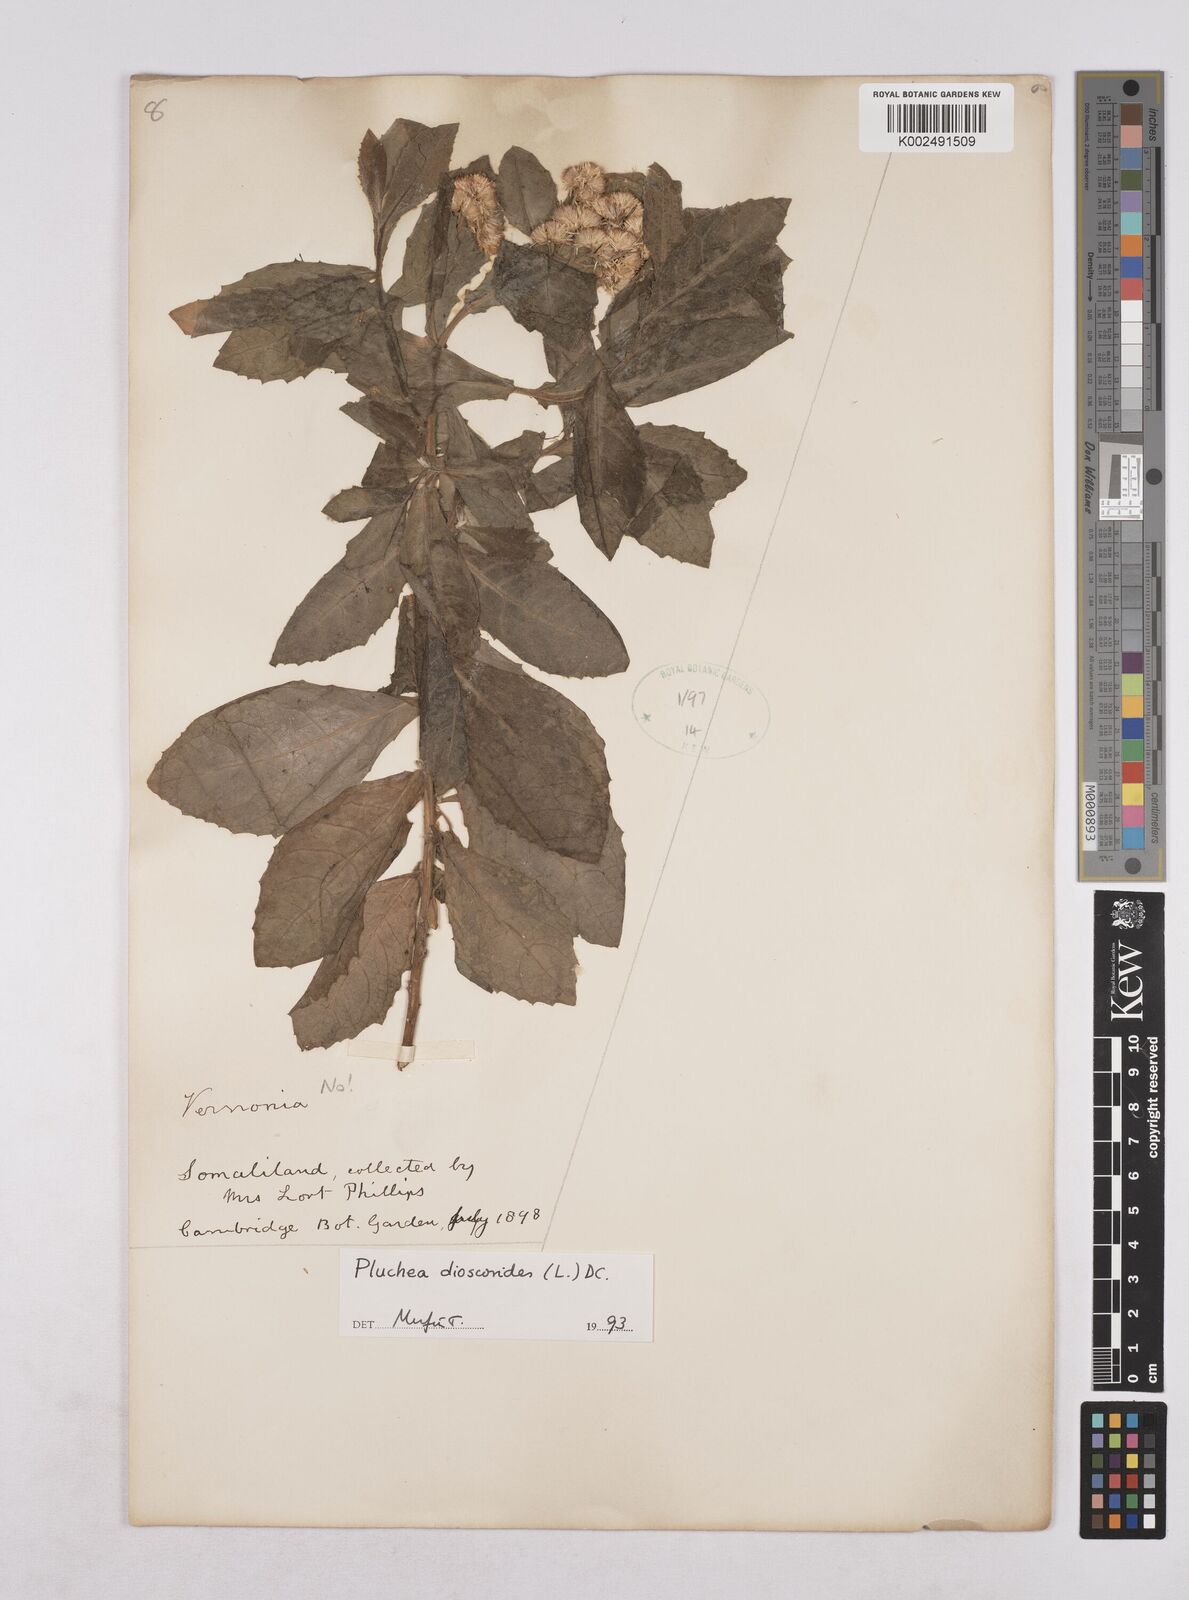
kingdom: Plantae
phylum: Tracheophyta
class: Magnoliopsida
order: Asterales
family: Asteraceae
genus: Pluchea
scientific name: Pluchea dioscoridis
